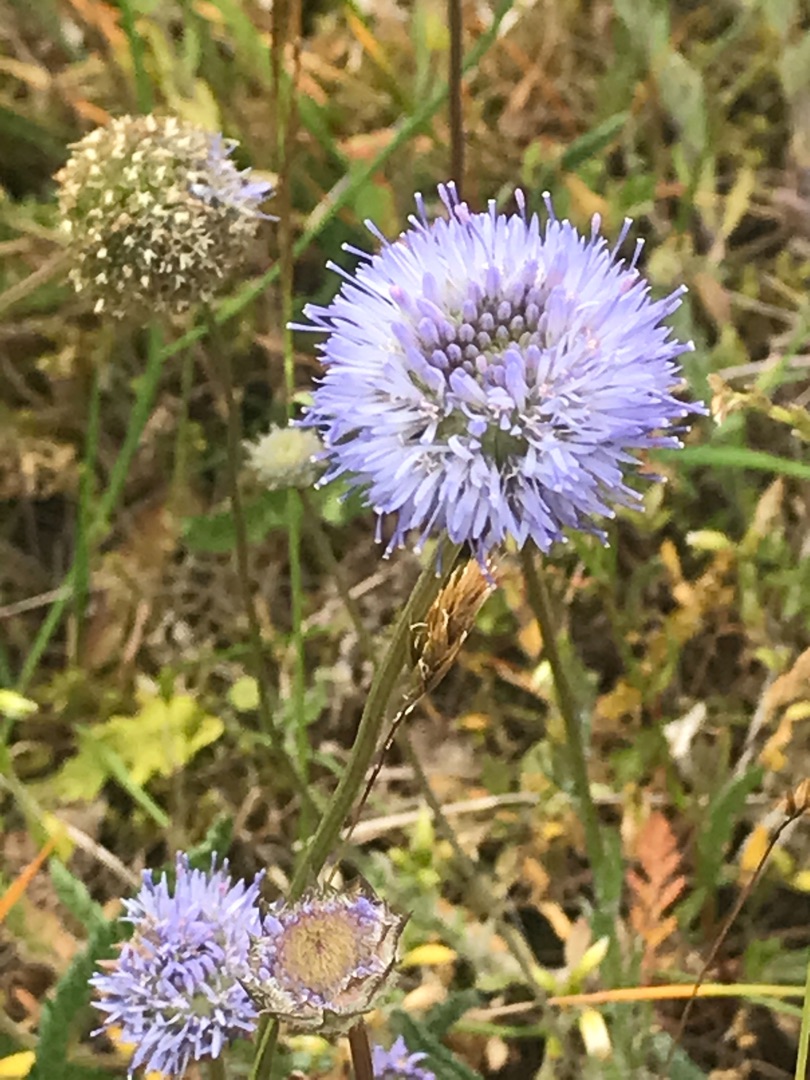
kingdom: Plantae
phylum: Tracheophyta
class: Magnoliopsida
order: Asterales
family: Campanulaceae
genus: Jasione
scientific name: Jasione montana
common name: Blåmunke
